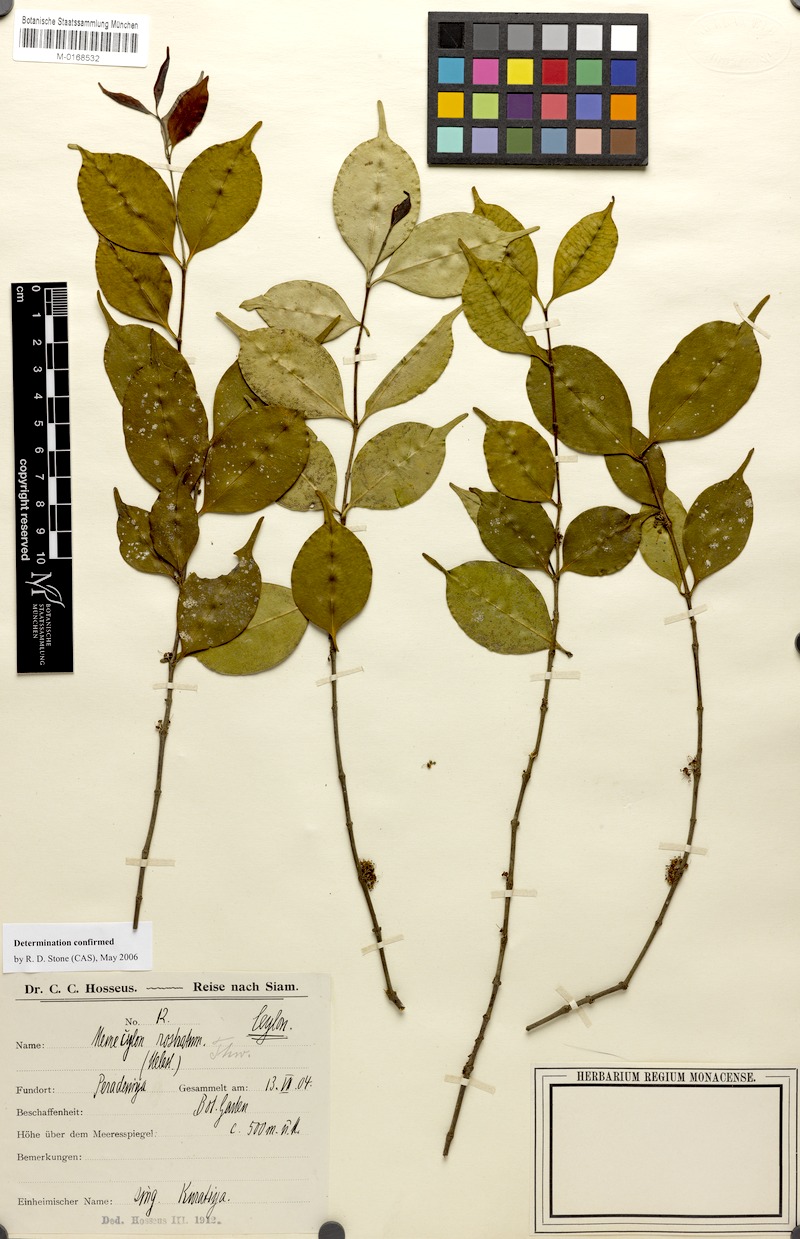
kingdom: Plantae
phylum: Tracheophyta
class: Magnoliopsida
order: Myrtales
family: Melastomataceae
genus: Memecylon
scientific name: Memecylon rostratum
